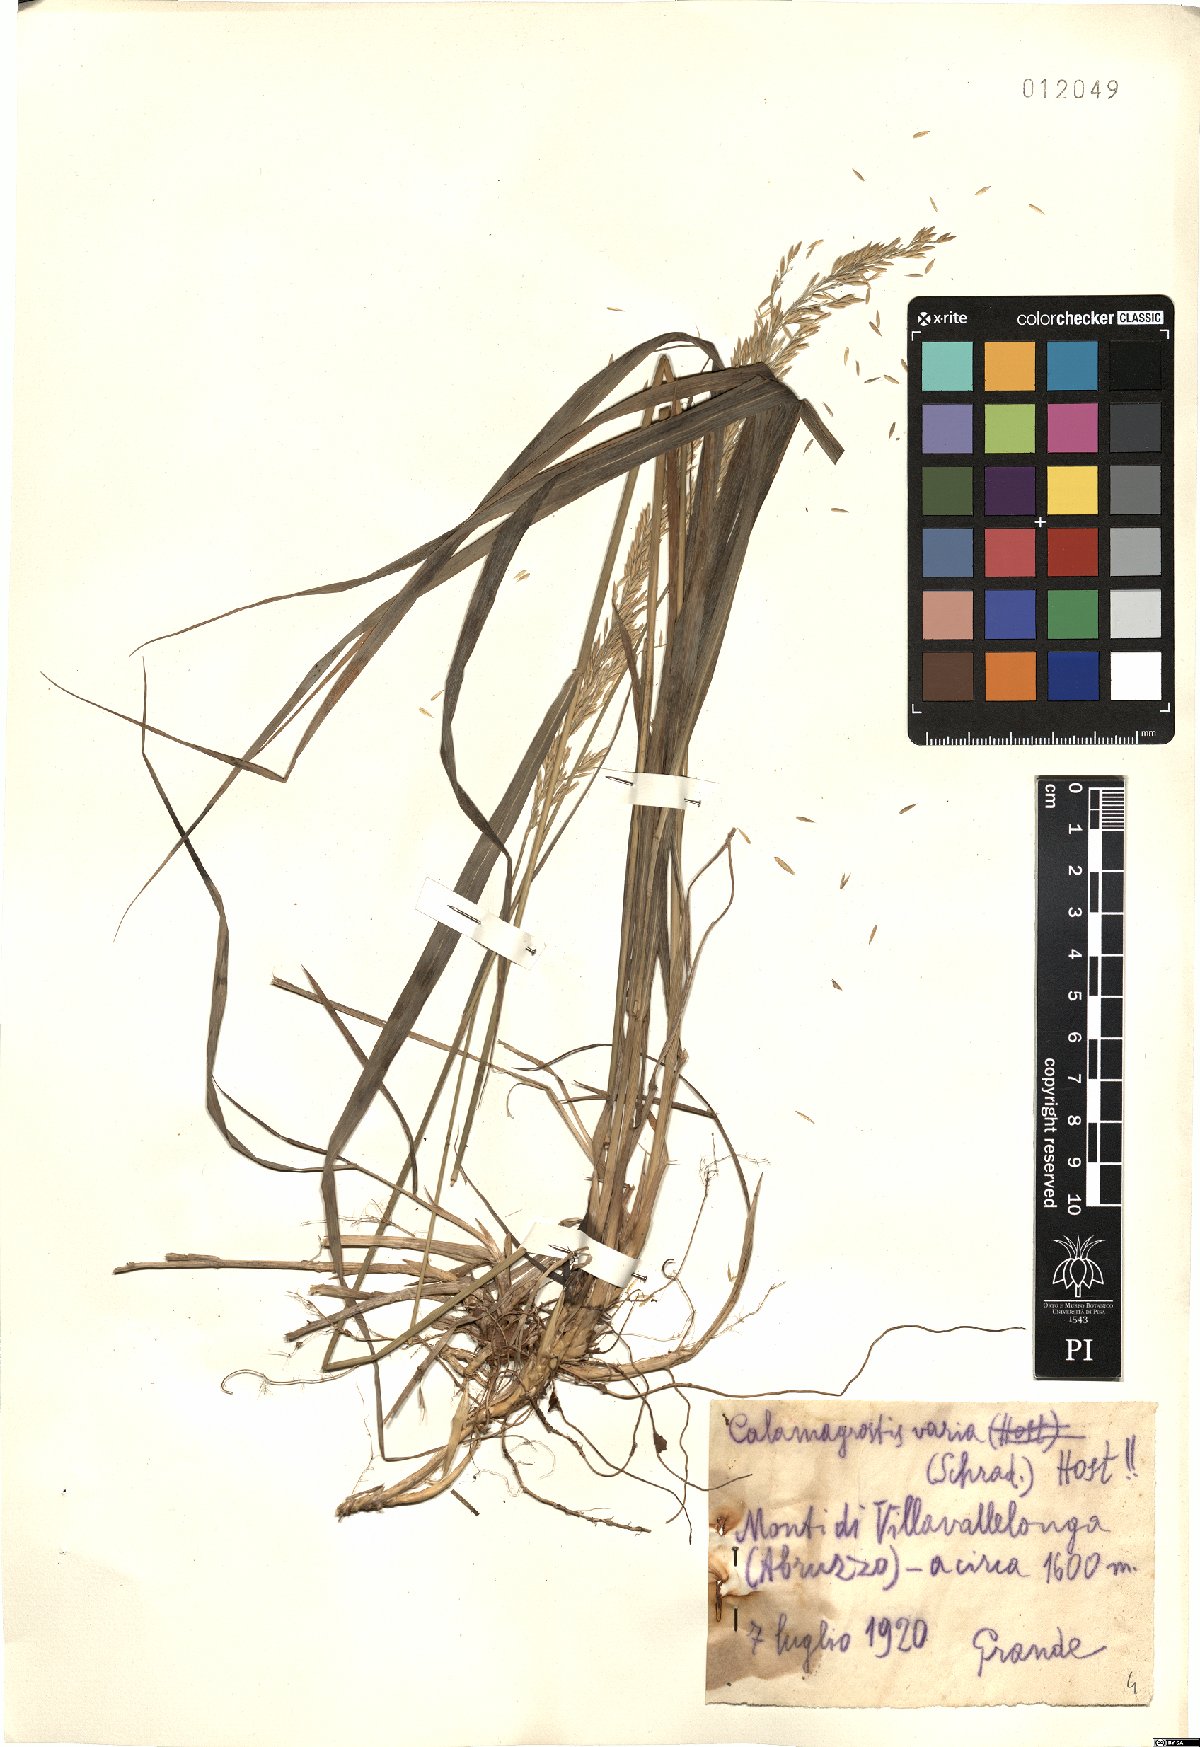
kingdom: Plantae
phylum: Tracheophyta
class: Liliopsida
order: Poales
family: Poaceae
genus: Calamagrostis
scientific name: Calamagrostis varia
